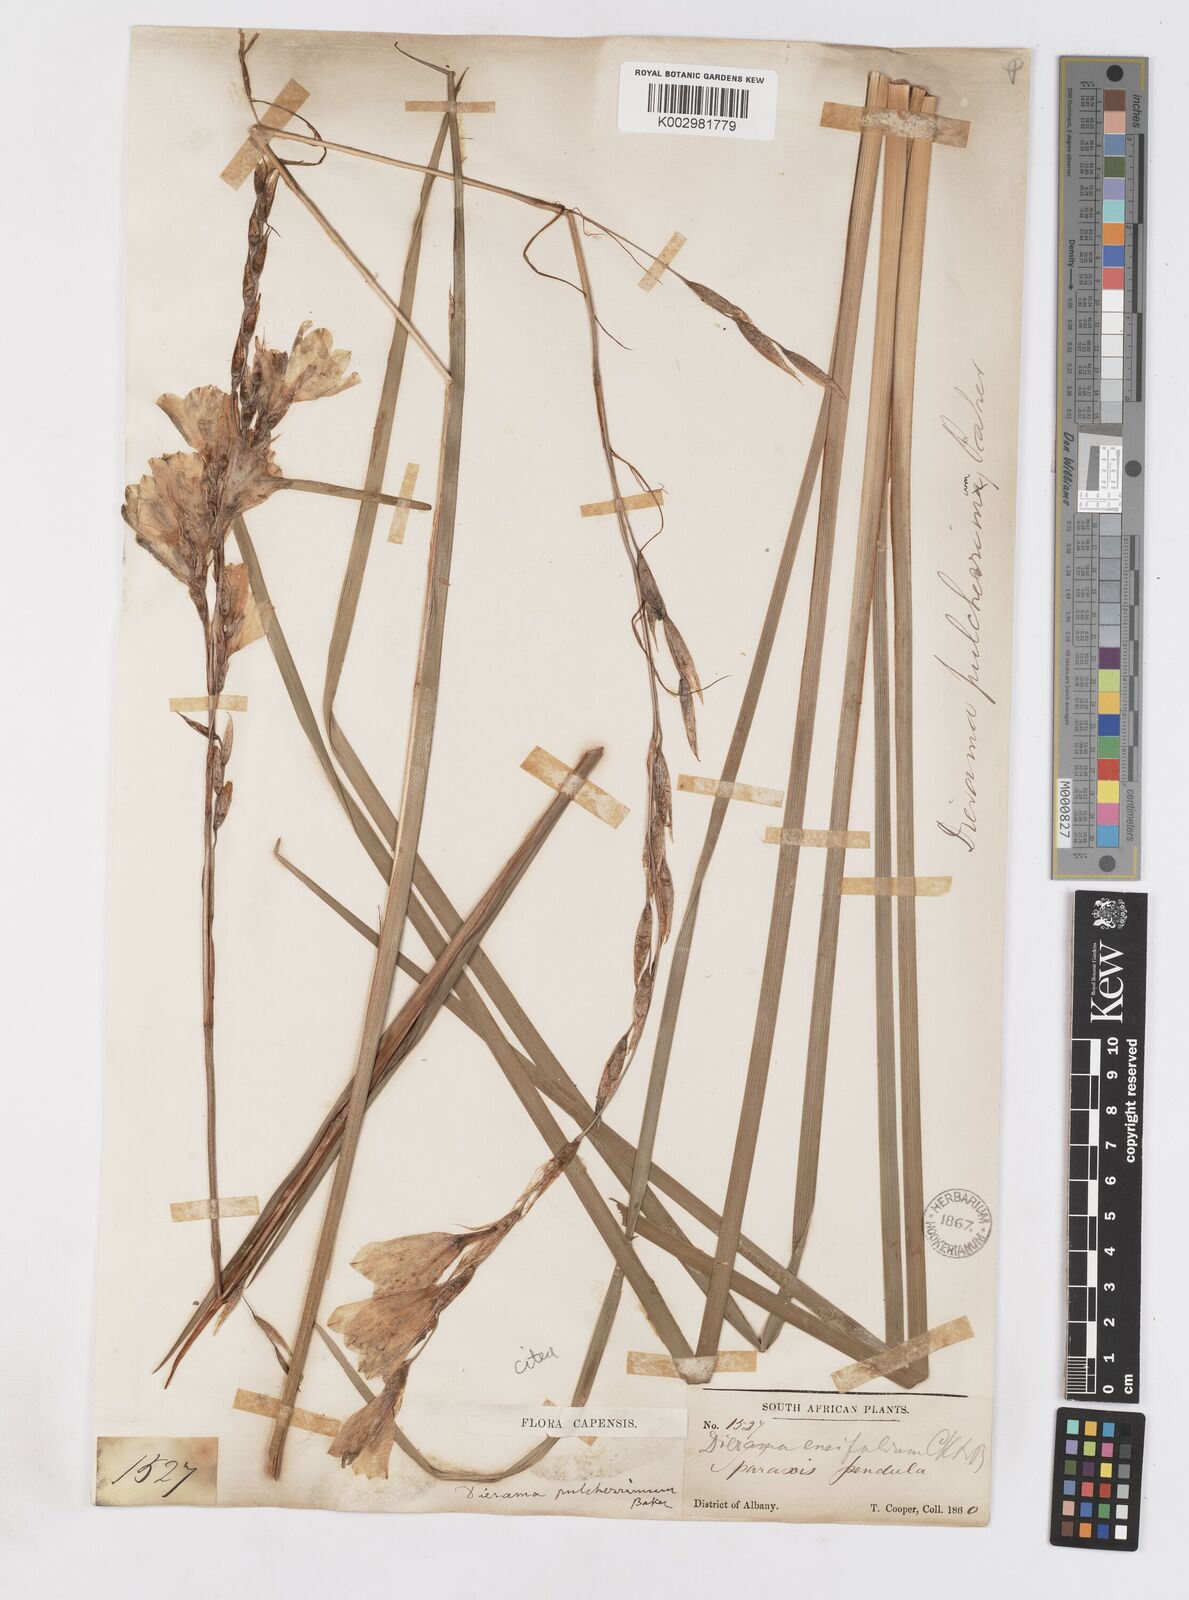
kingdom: Plantae
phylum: Tracheophyta
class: Liliopsida
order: Asparagales
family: Iridaceae
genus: Dierama
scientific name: Dierama pendulum
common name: Grassy-bell
